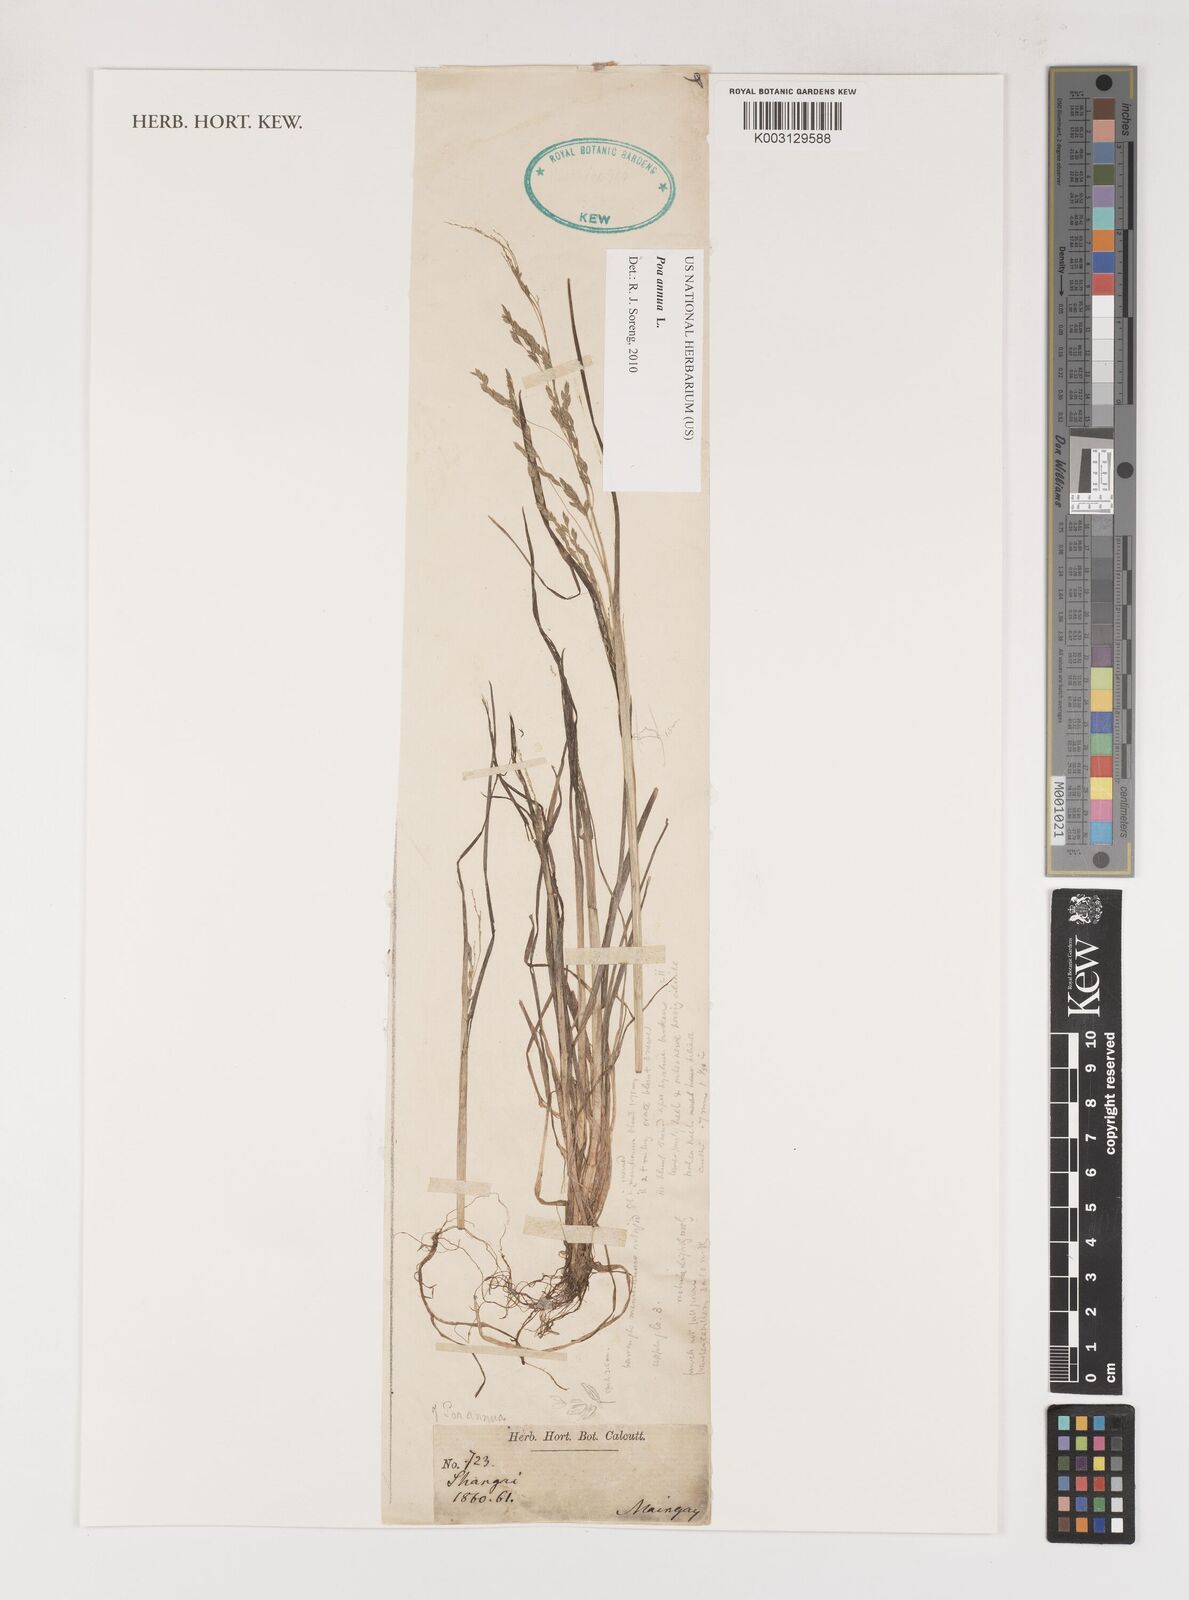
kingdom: Plantae
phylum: Tracheophyta
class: Liliopsida
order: Poales
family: Poaceae
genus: Poa
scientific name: Poa annua
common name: Annual bluegrass
